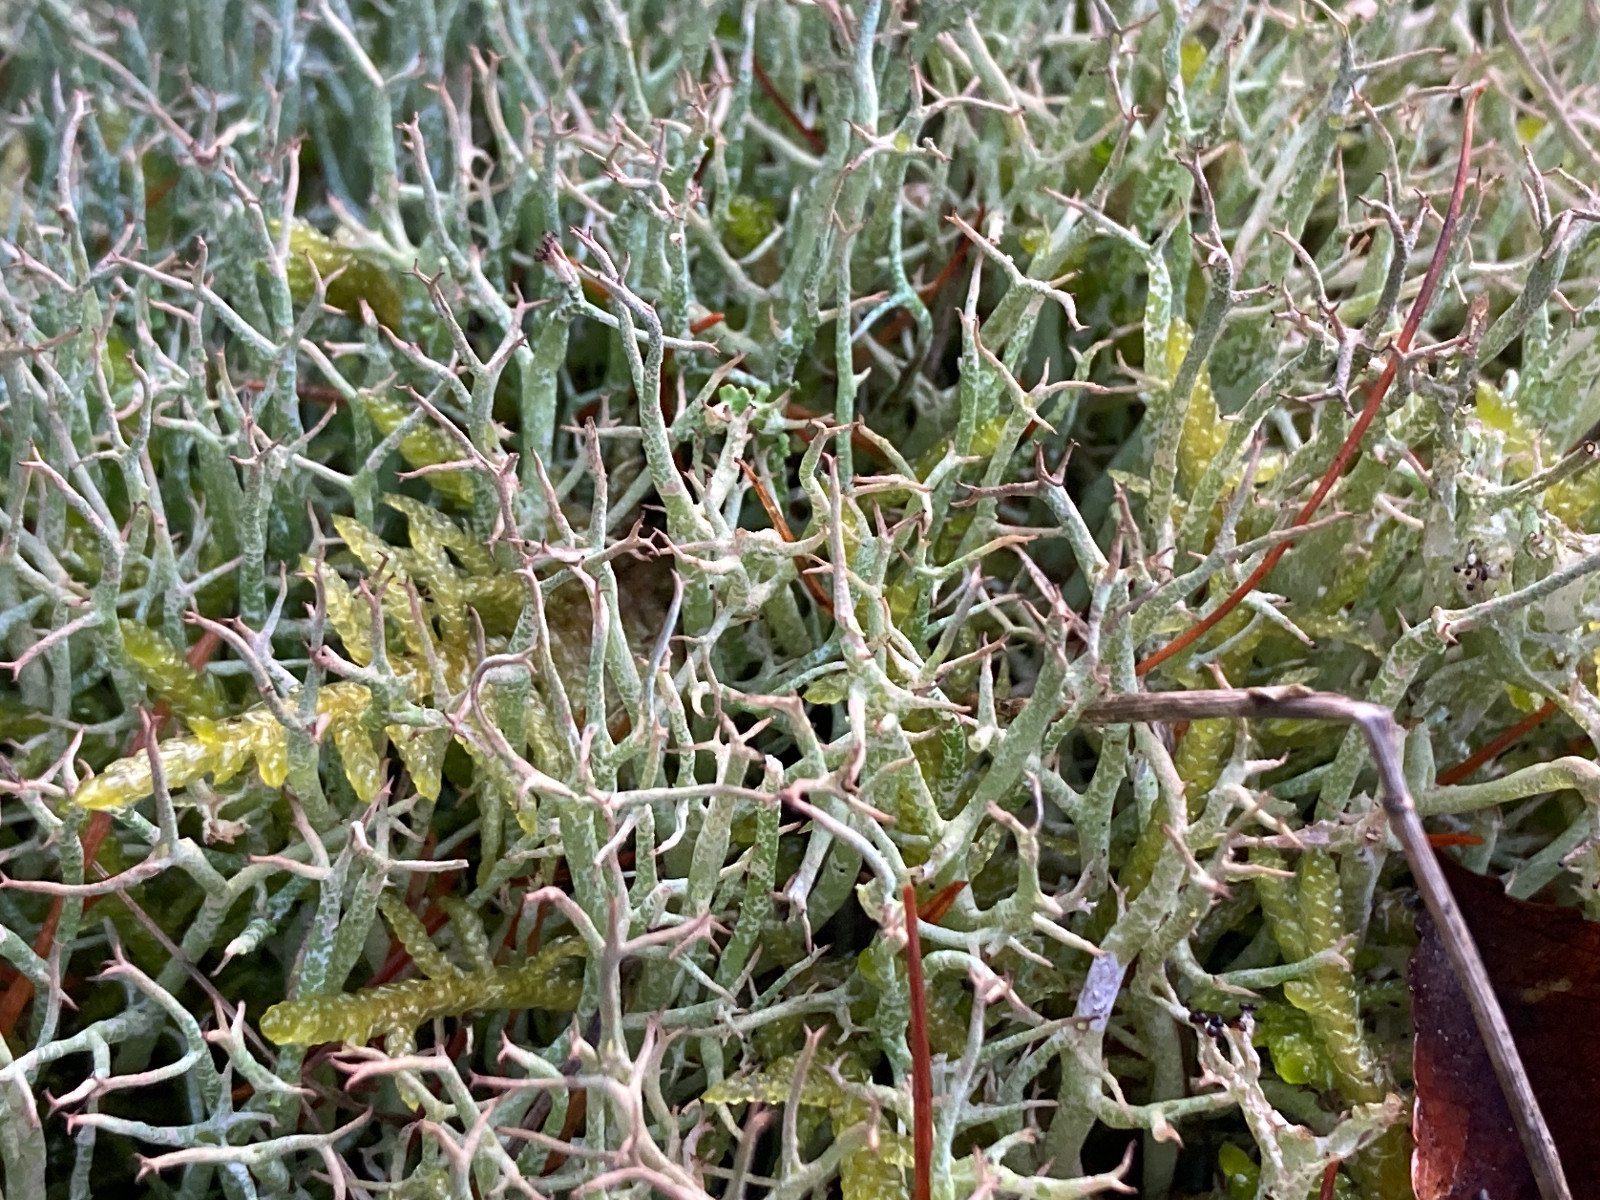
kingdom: Fungi
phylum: Ascomycota
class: Lecanoromycetes
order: Lecanorales
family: Cladoniaceae
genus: Cladonia
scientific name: Cladonia rangiformis
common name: spættet bægerlav
